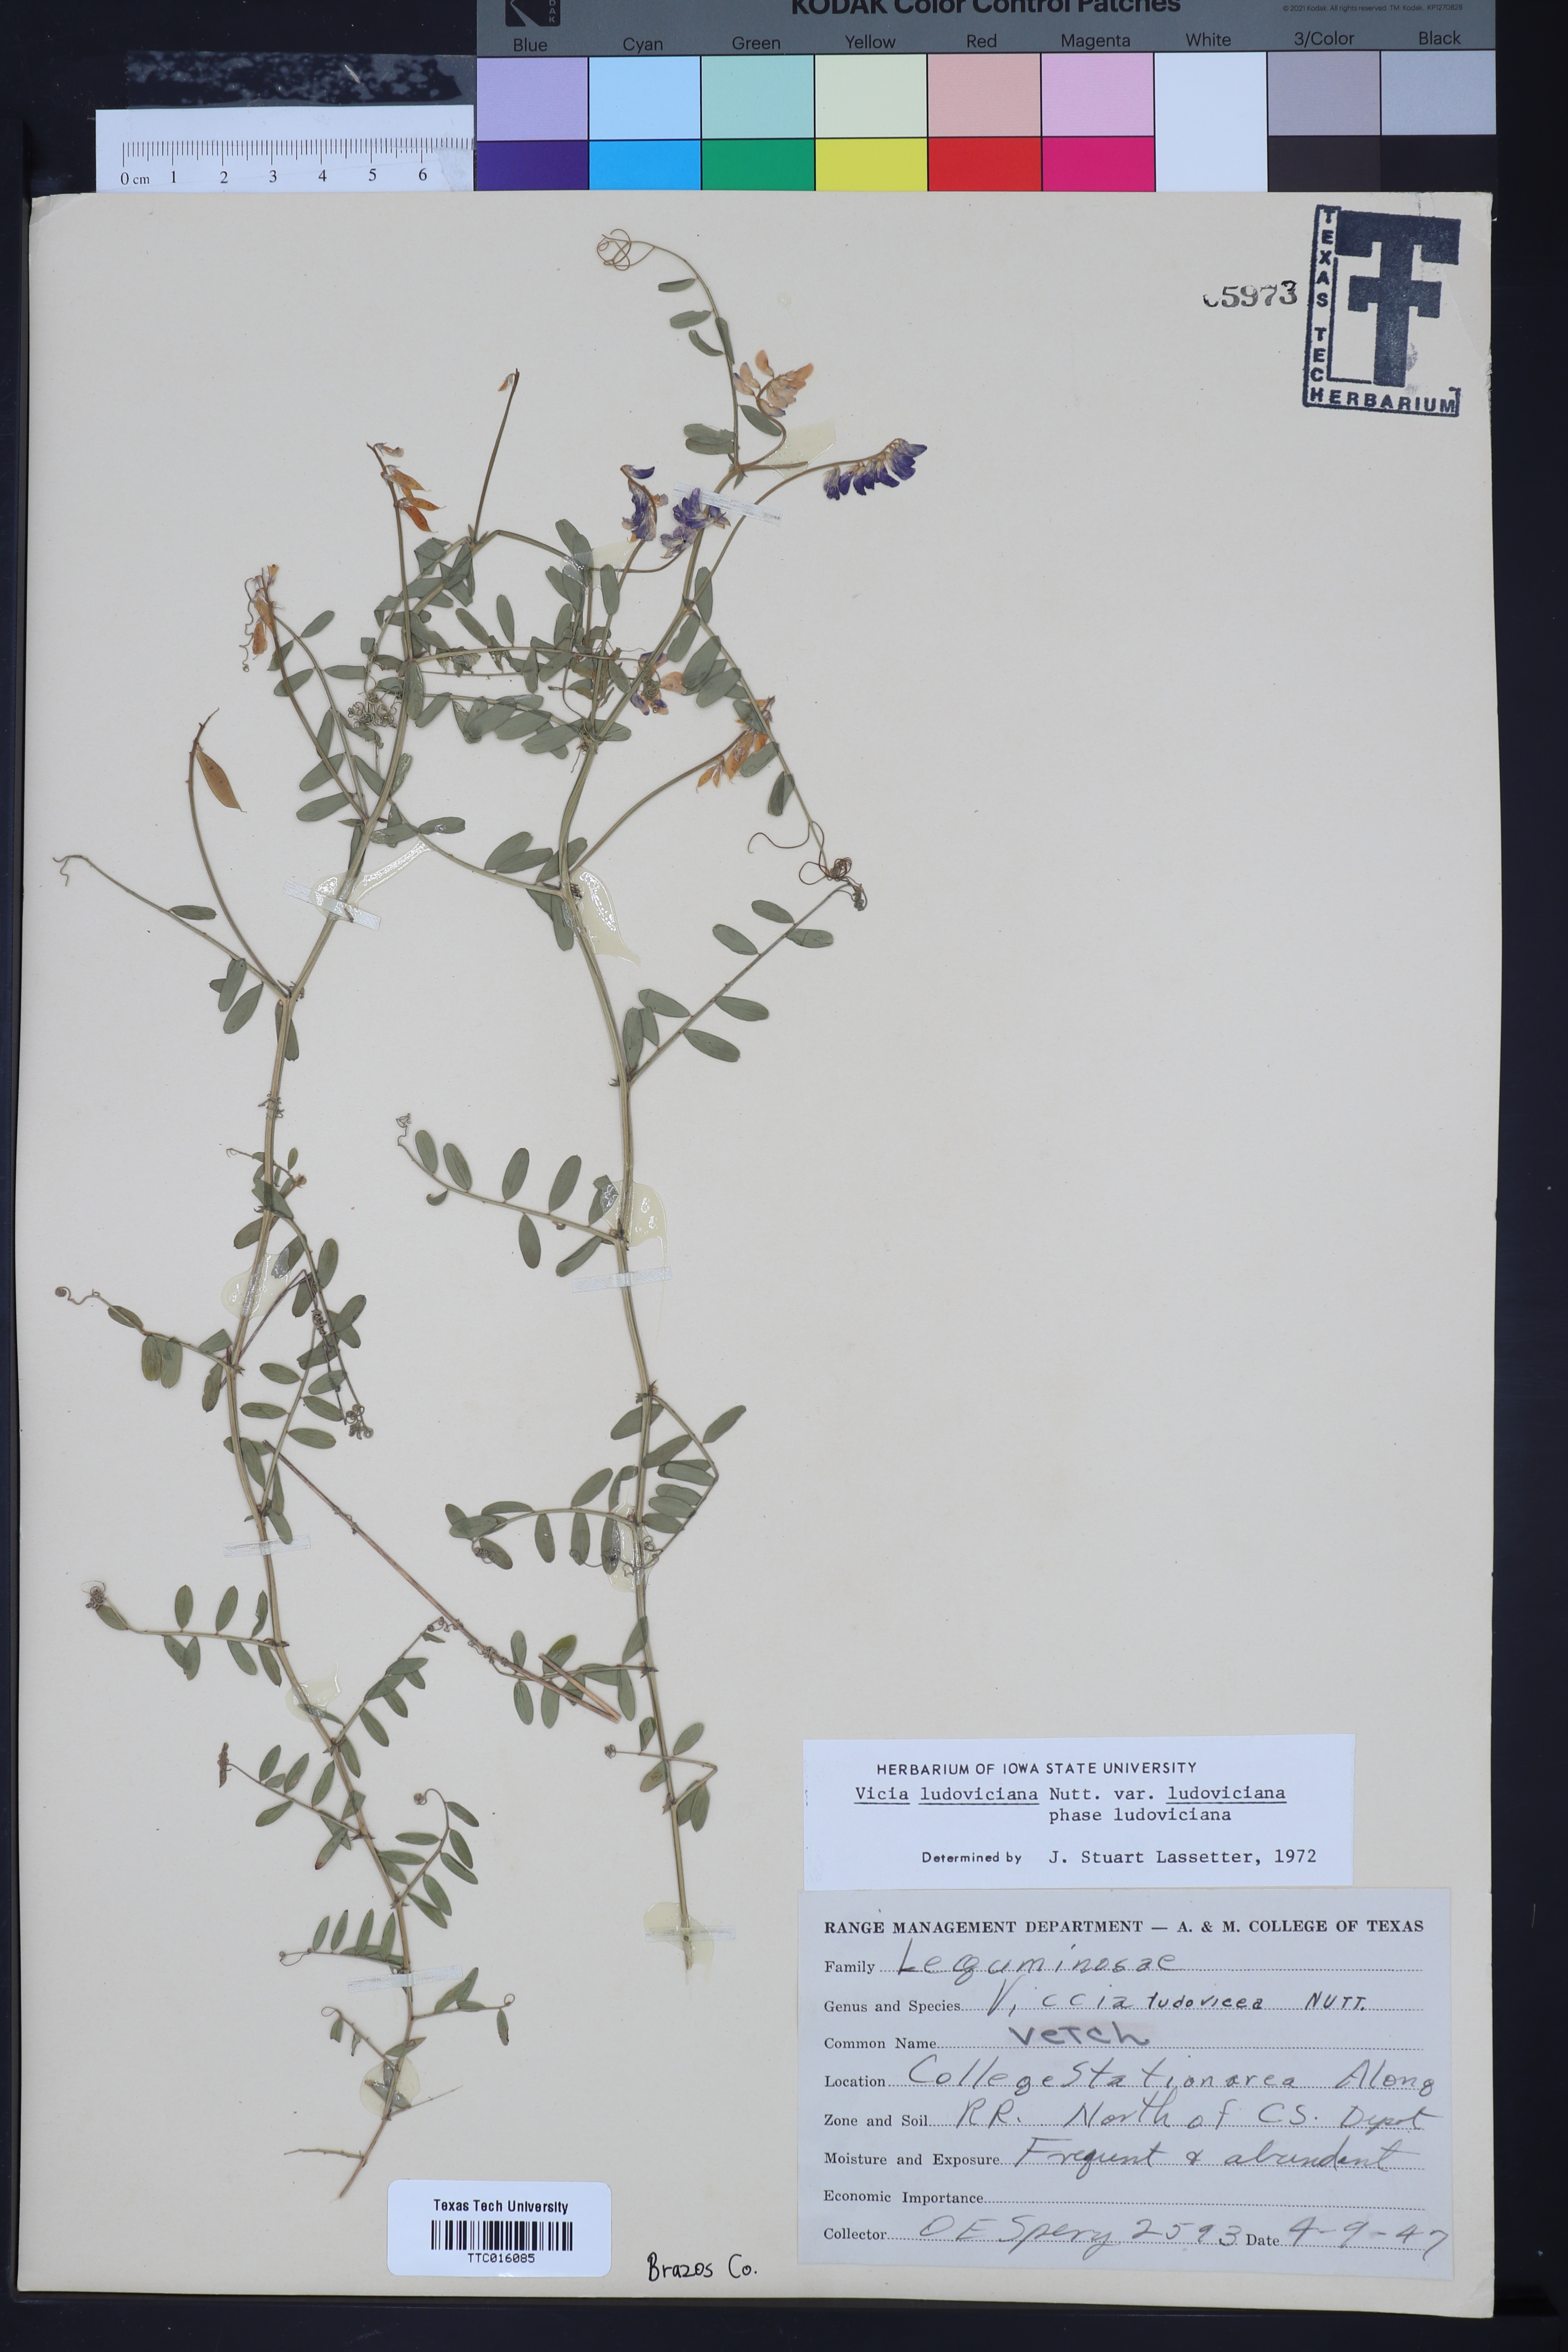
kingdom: Plantae
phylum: Tracheophyta
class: Magnoliopsida
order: Fabales
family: Fabaceae
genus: Vicia
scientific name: Vicia ludoviciana
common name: Louisiana vetch
